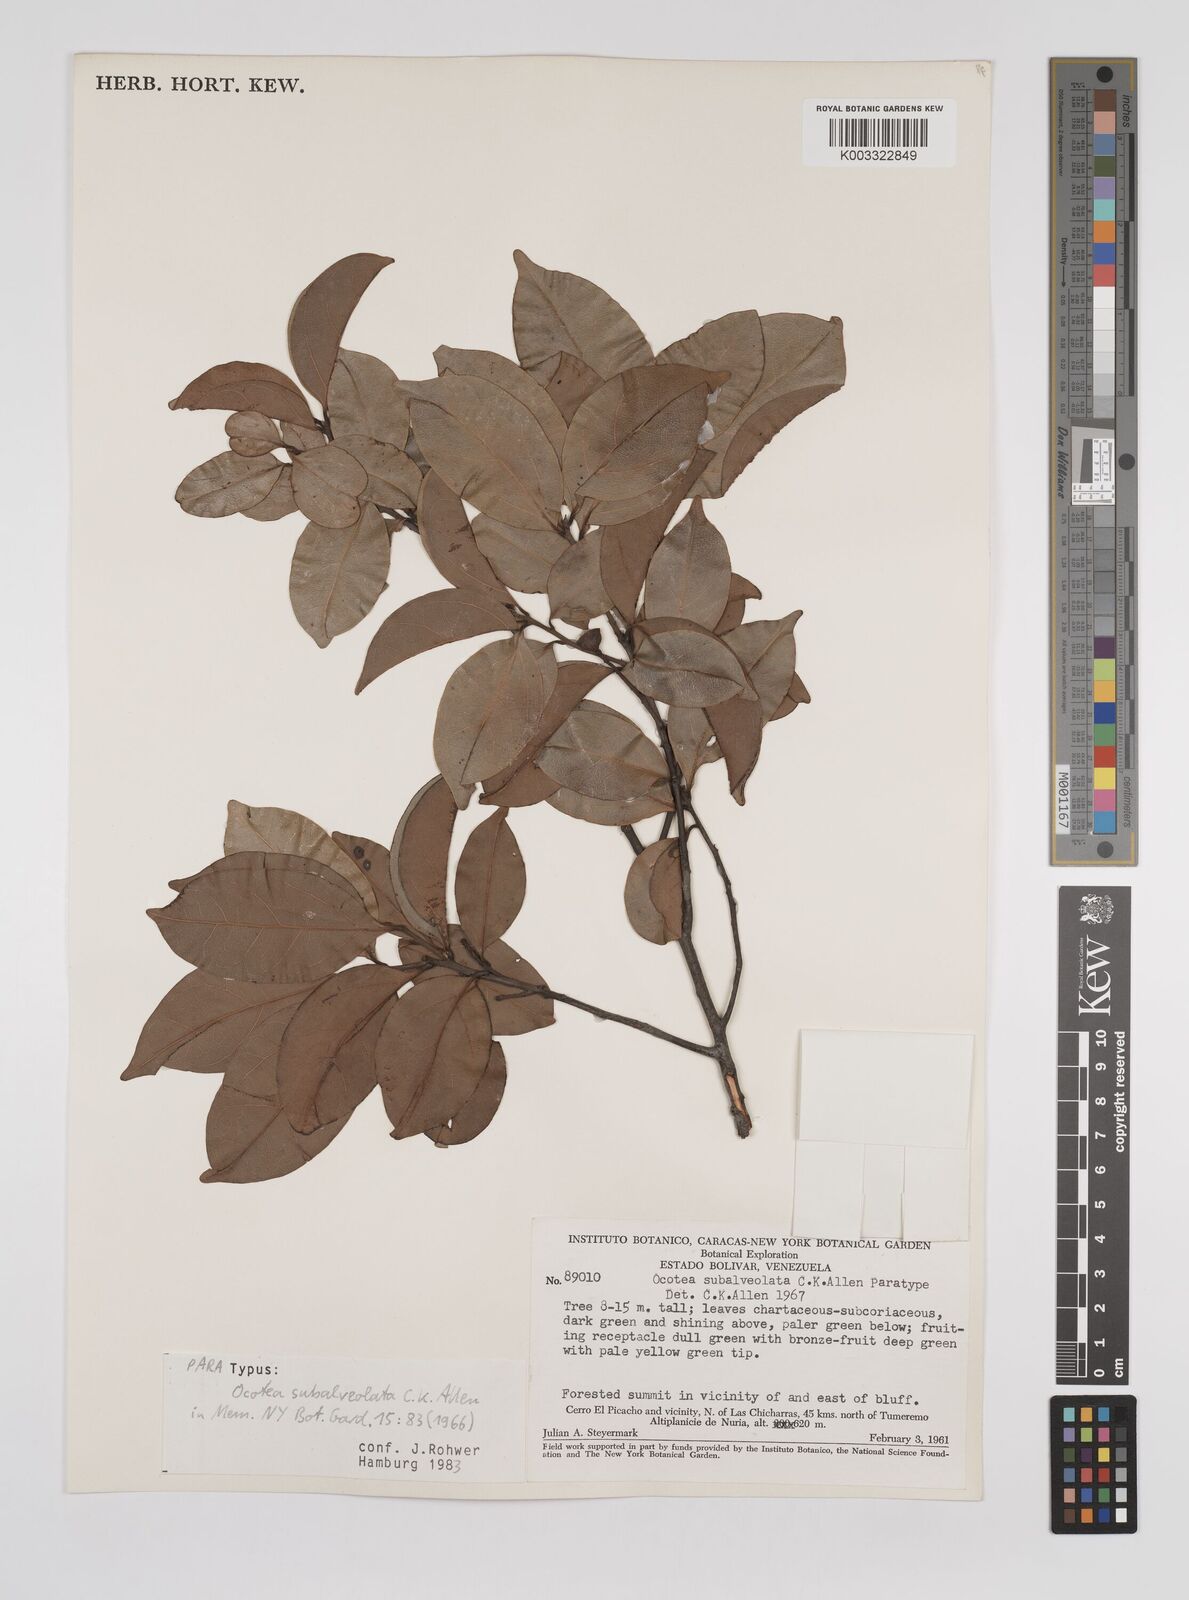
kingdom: Plantae
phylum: Tracheophyta
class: Magnoliopsida
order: Laurales
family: Lauraceae
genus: Ocotea
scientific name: Ocotea schomburgkiana
